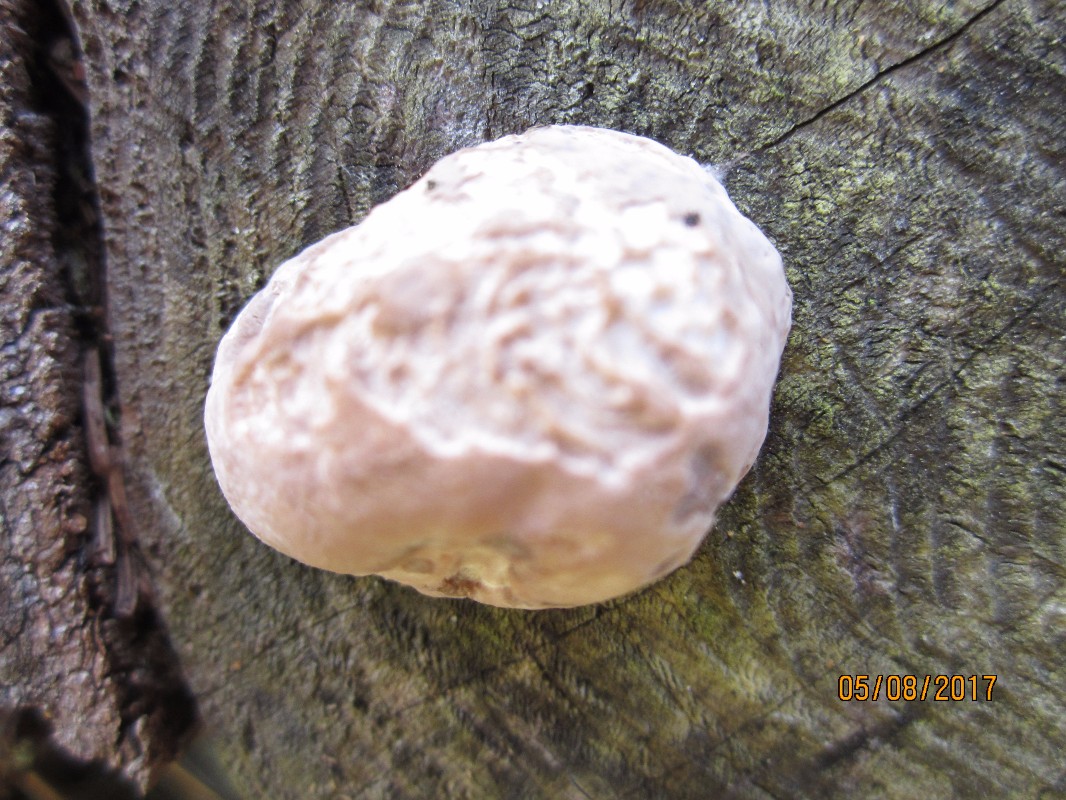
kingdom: Protozoa
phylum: Mycetozoa
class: Myxomycetes
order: Cribrariales
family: Tubiferaceae
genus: Reticularia
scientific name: Reticularia
